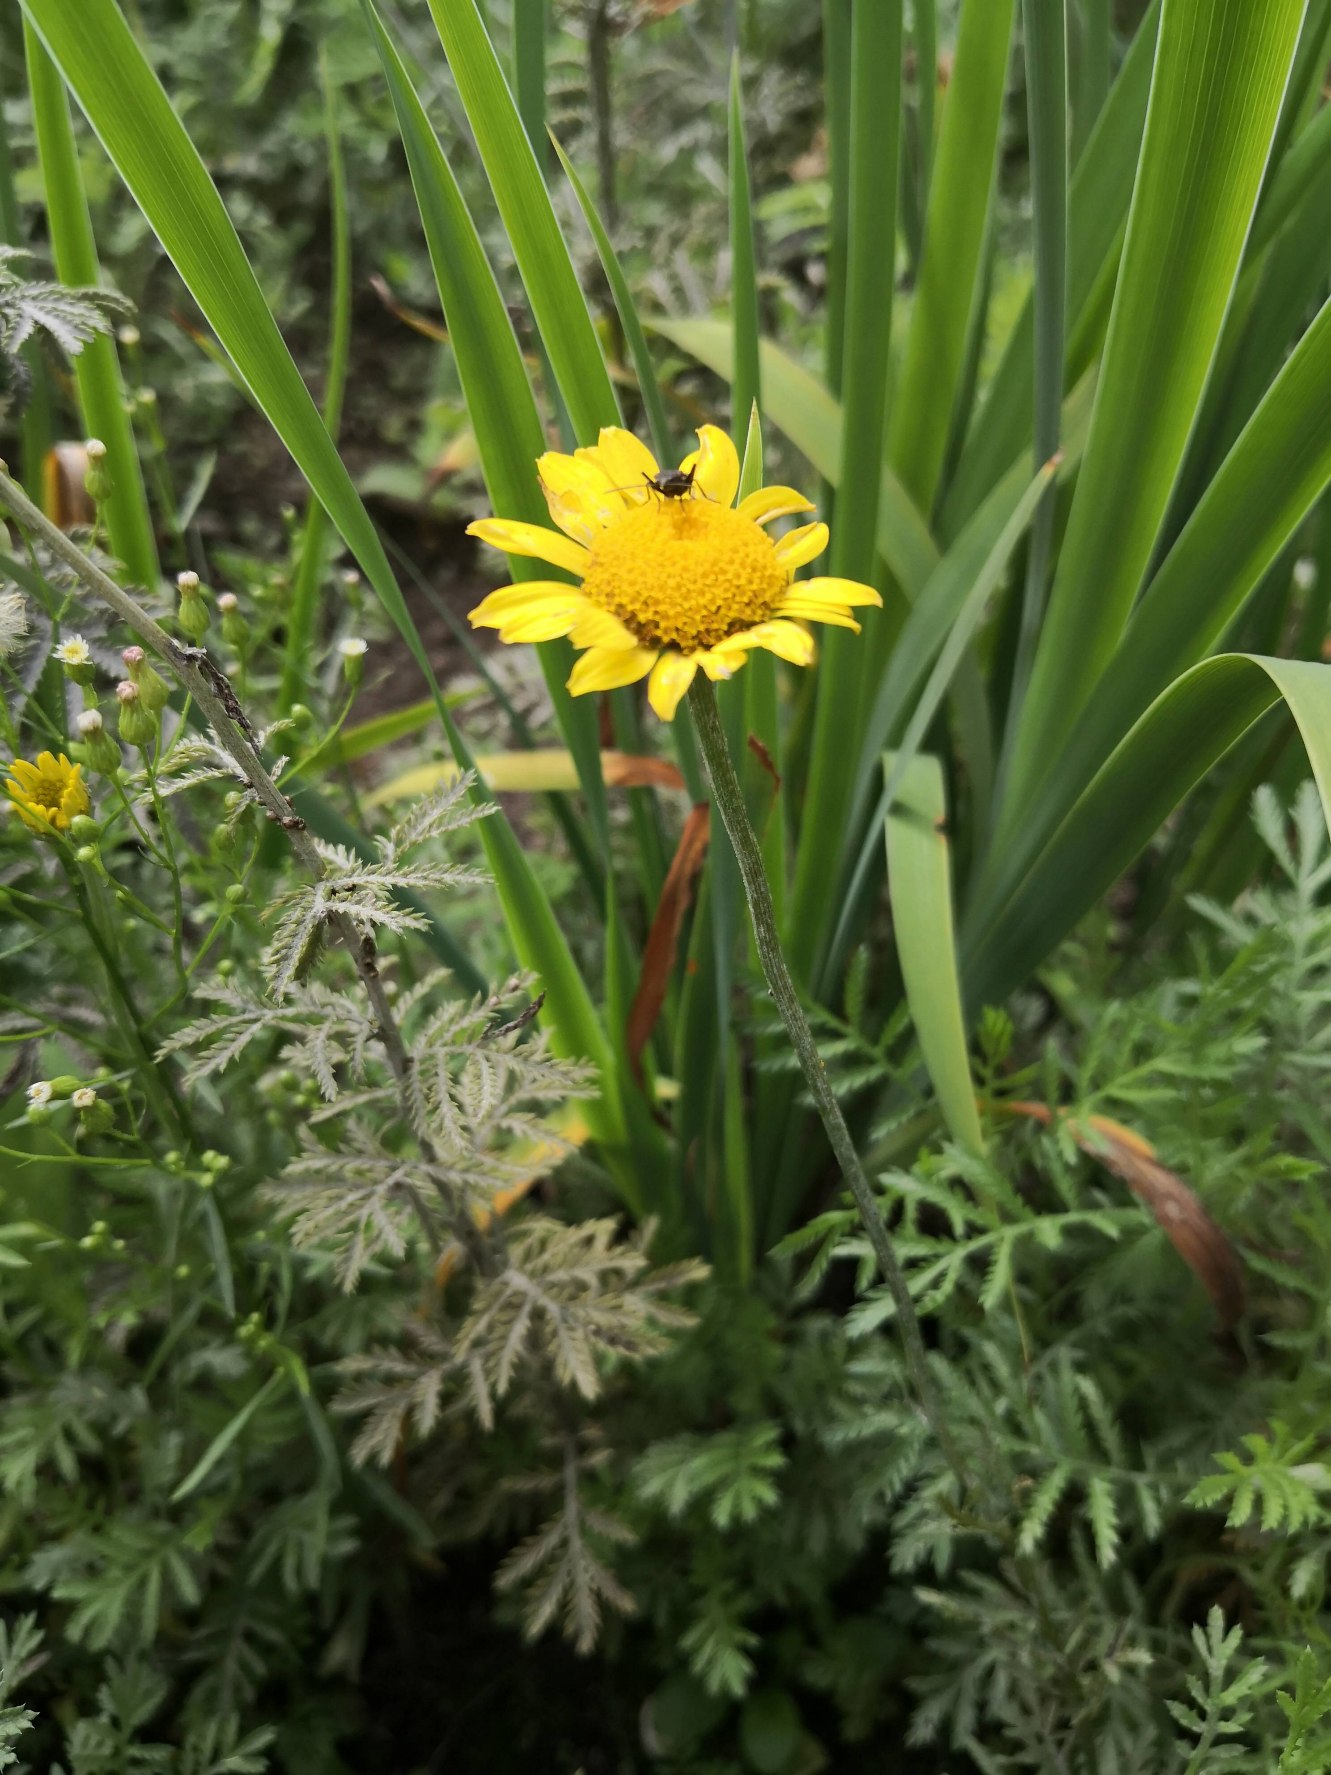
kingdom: Plantae
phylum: Tracheophyta
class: Magnoliopsida
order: Asterales
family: Asteraceae
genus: Cota
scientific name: Cota tinctoria
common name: Farve-gåseurt
